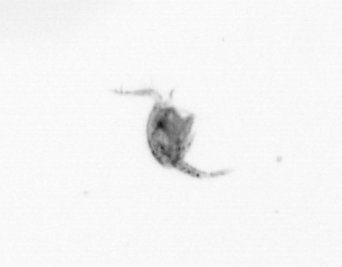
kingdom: Animalia
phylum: Arthropoda
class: Copepoda
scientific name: Copepoda
